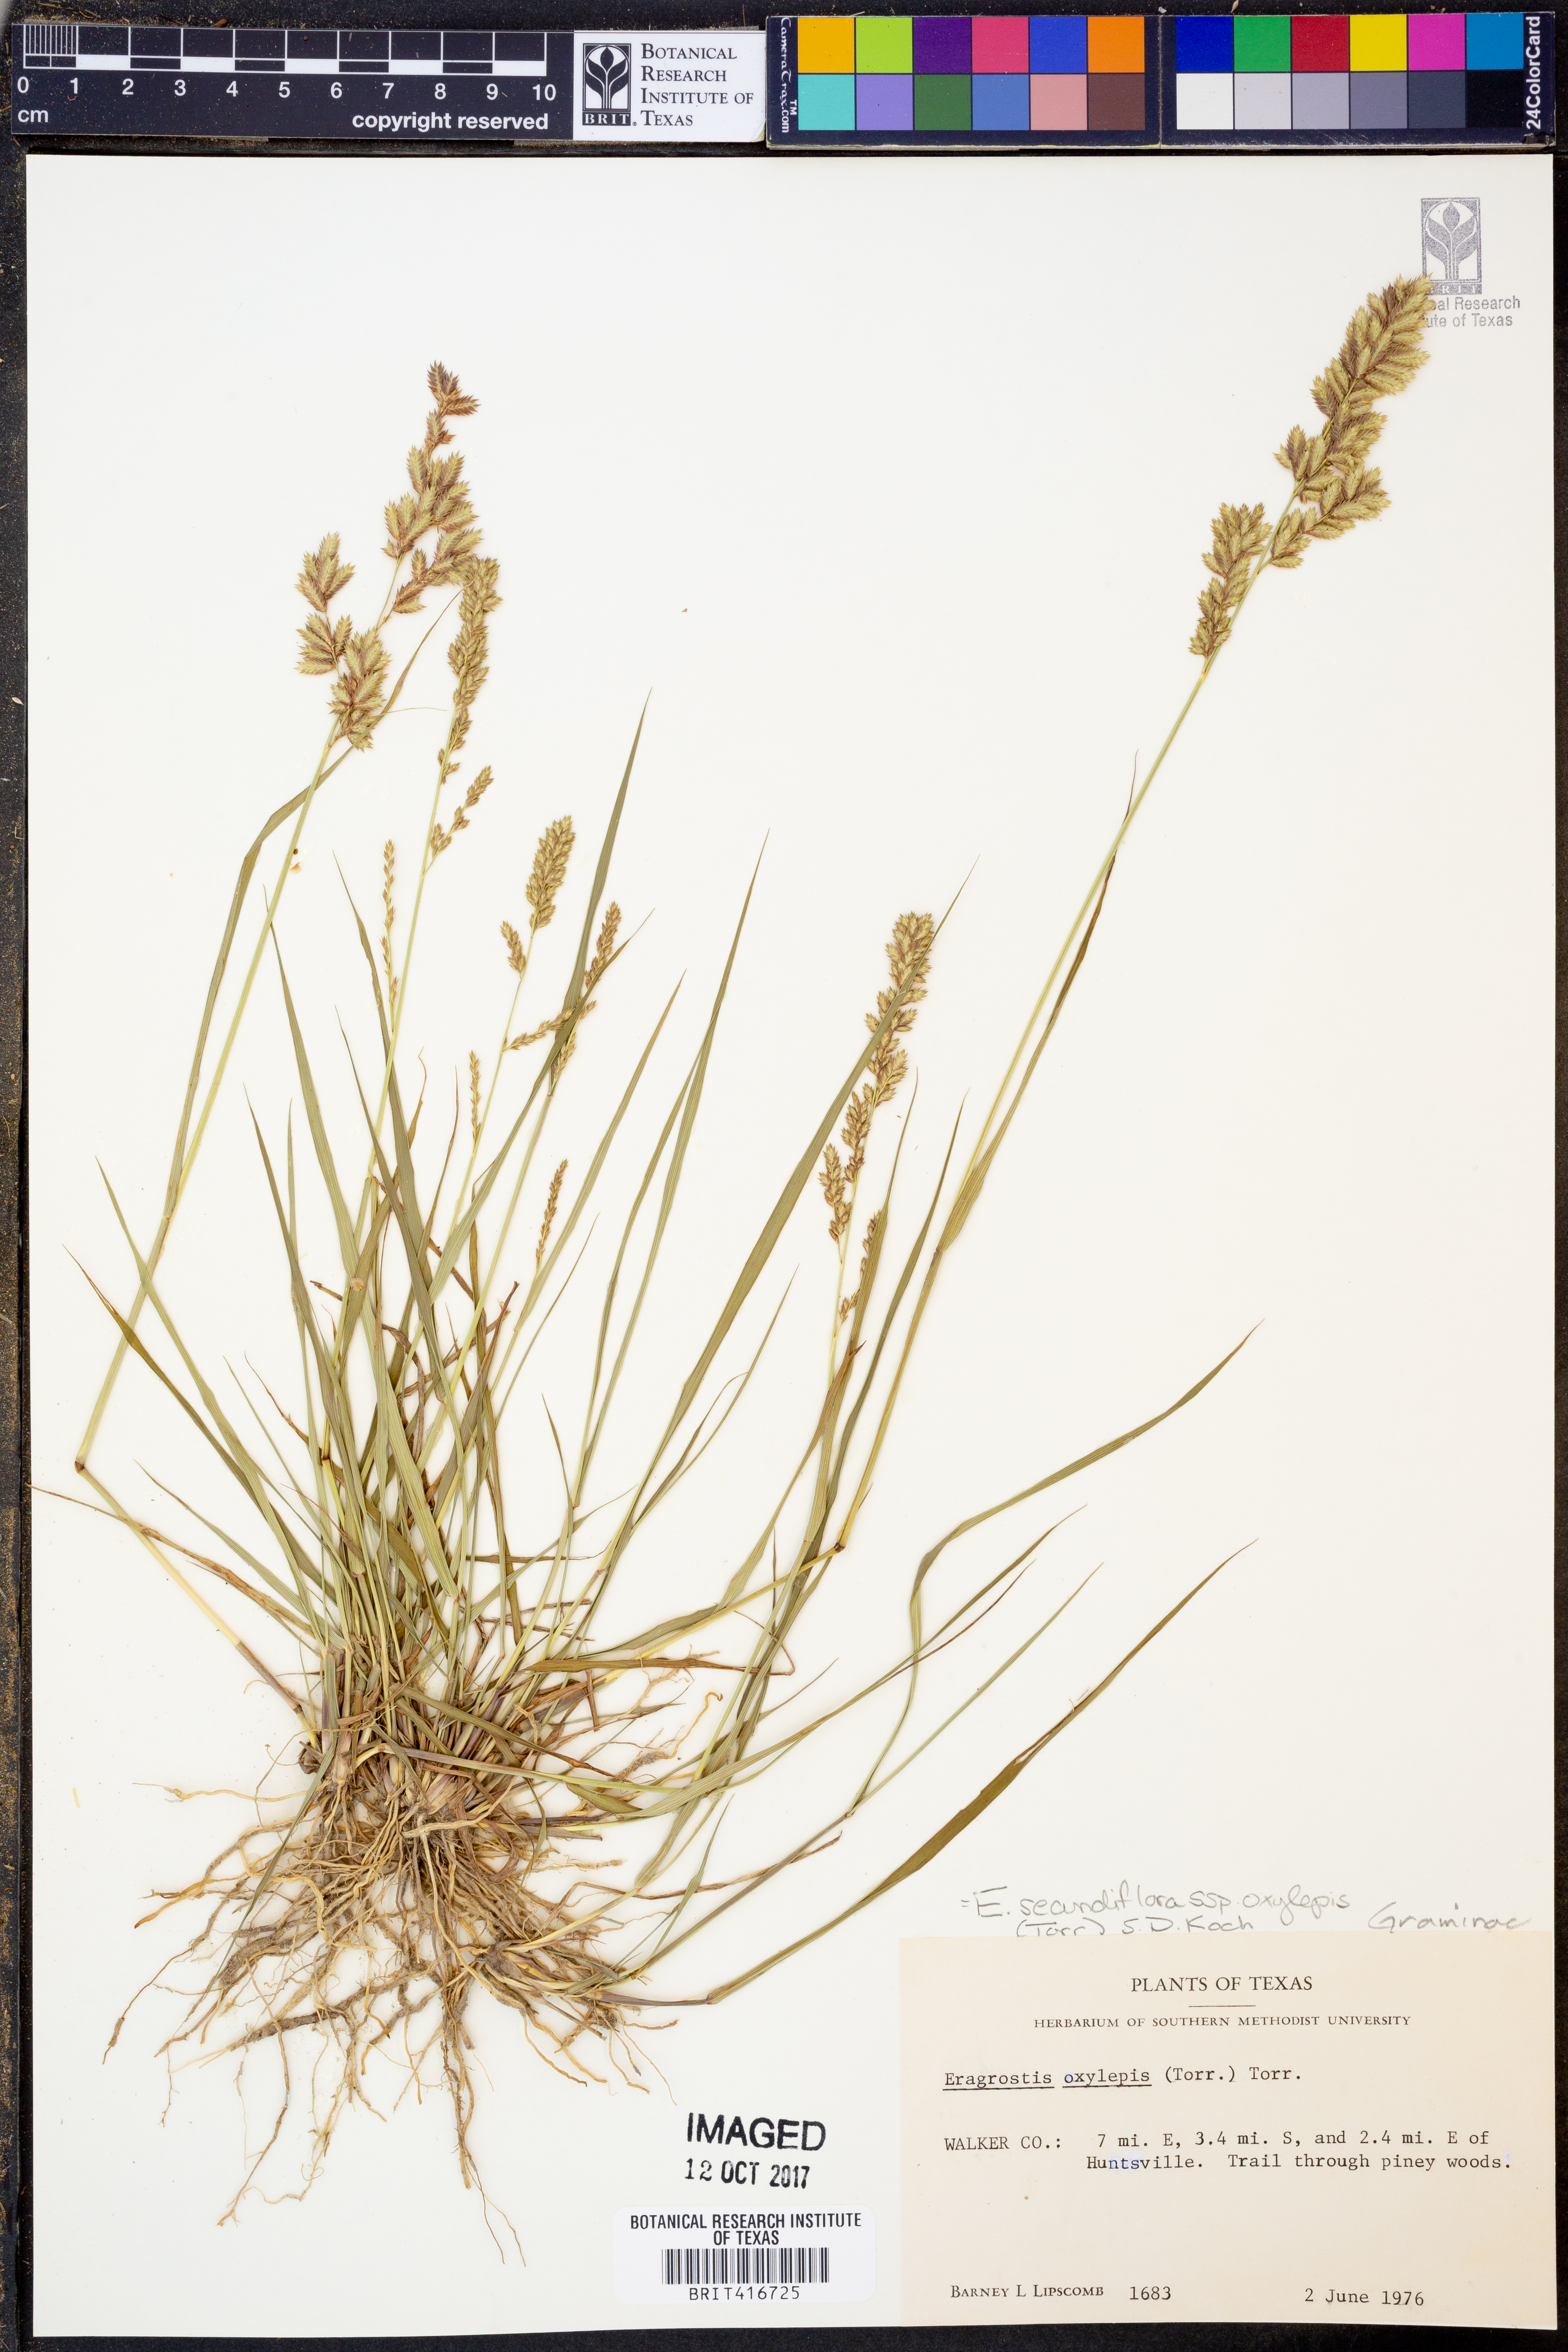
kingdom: Plantae
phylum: Tracheophyta
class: Liliopsida
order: Poales
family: Poaceae
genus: Eragrostis
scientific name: Eragrostis secundiflora
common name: Red love grass
